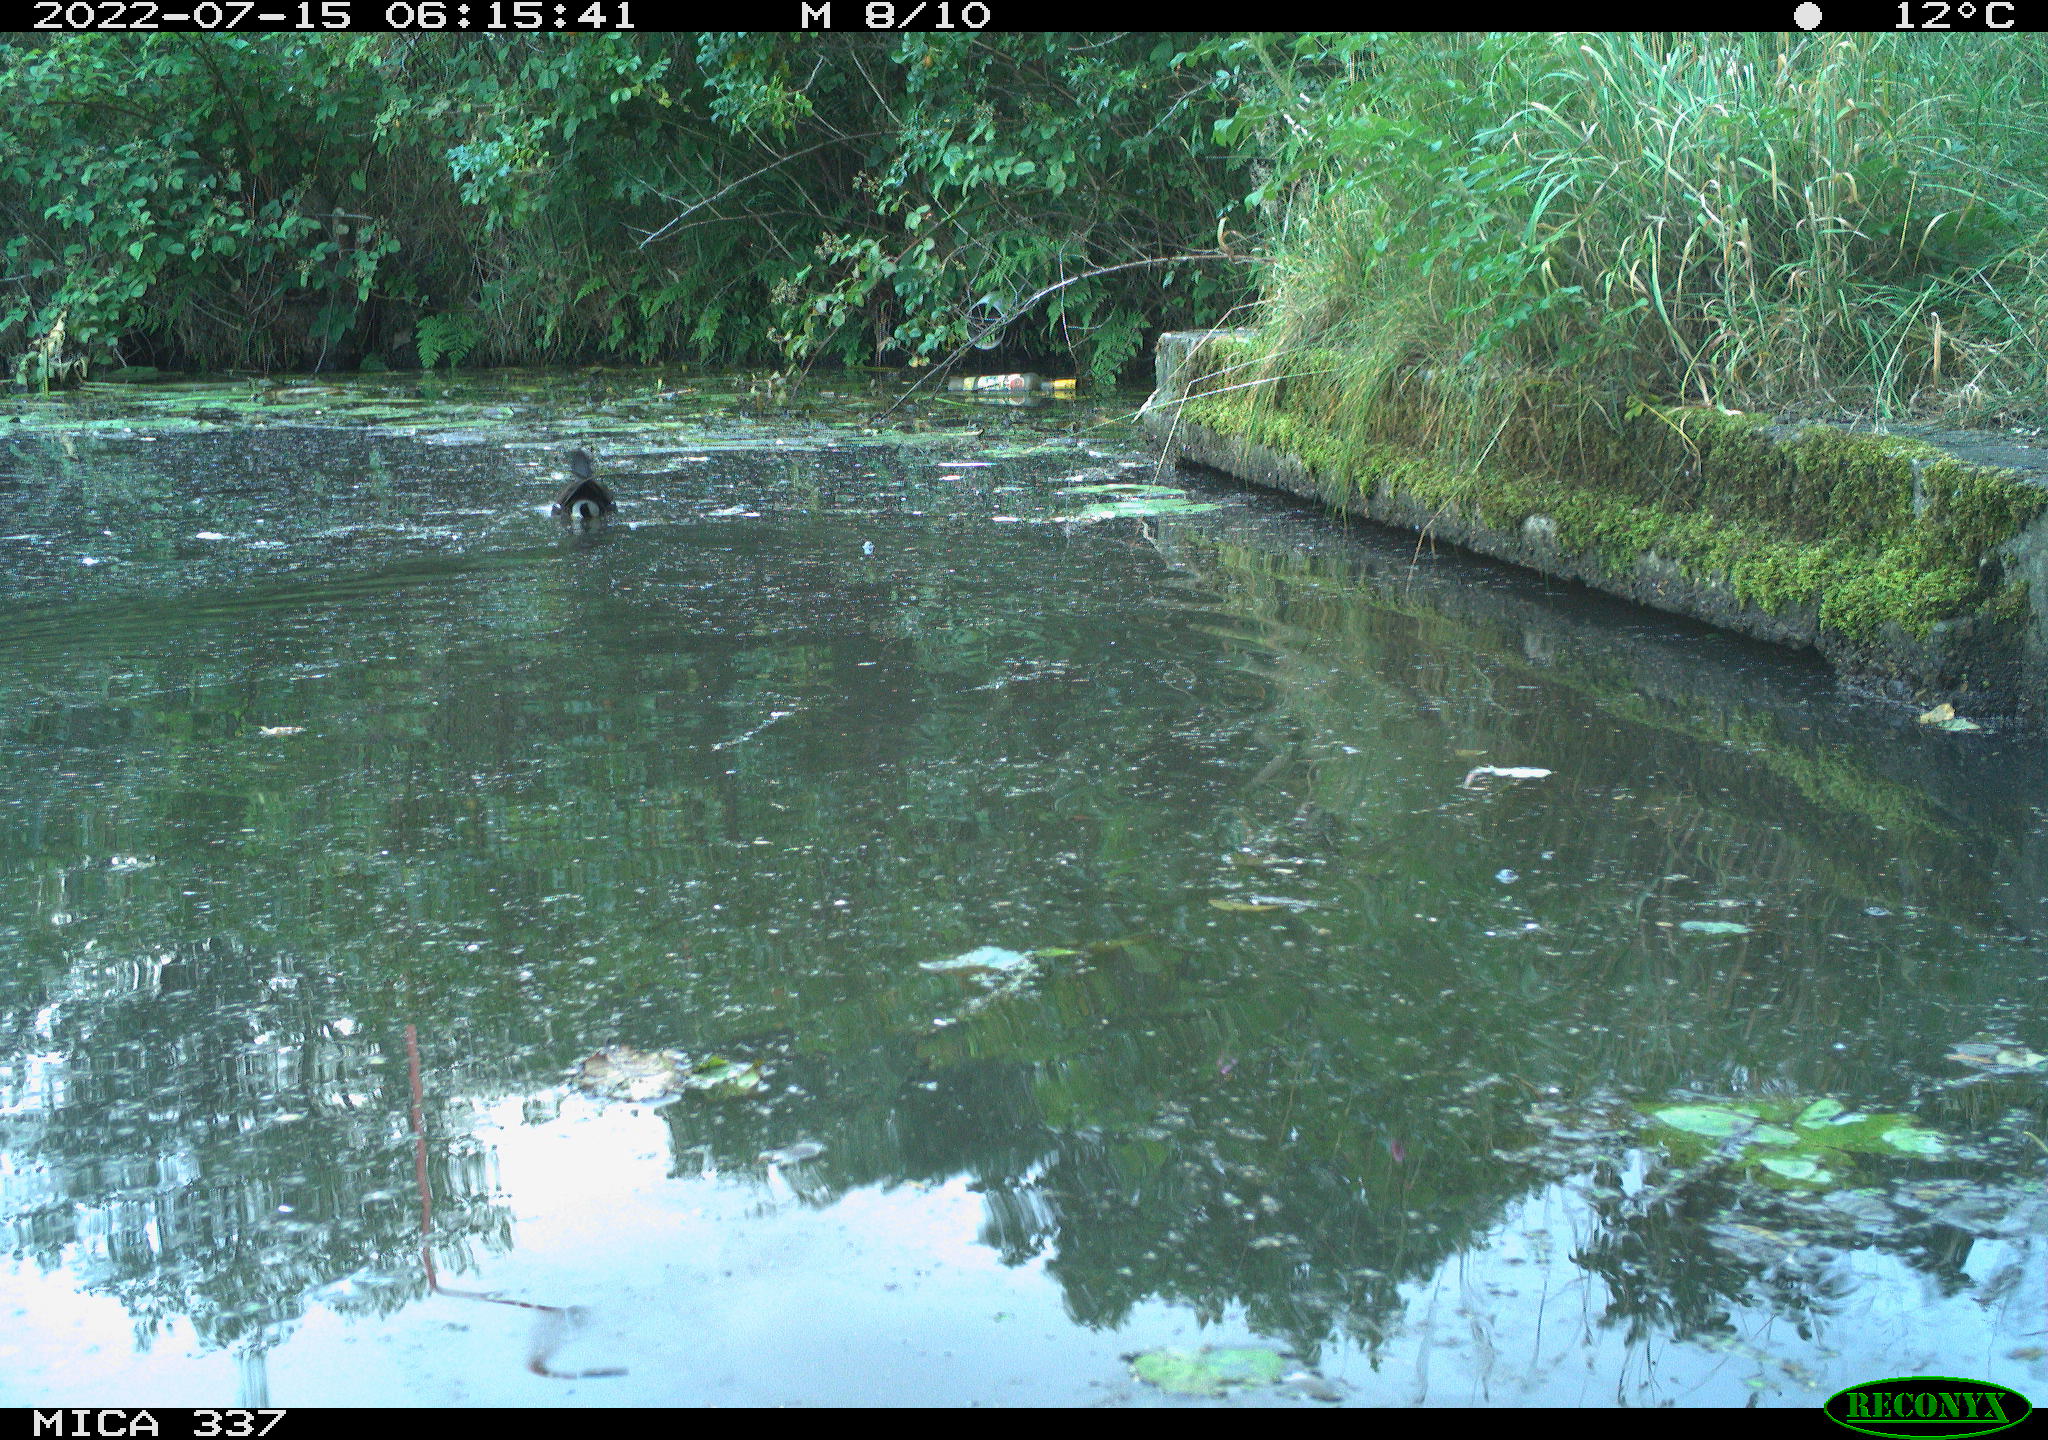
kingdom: Animalia
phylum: Chordata
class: Aves
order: Gruiformes
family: Rallidae
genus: Gallinula
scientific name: Gallinula chloropus
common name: Common moorhen
